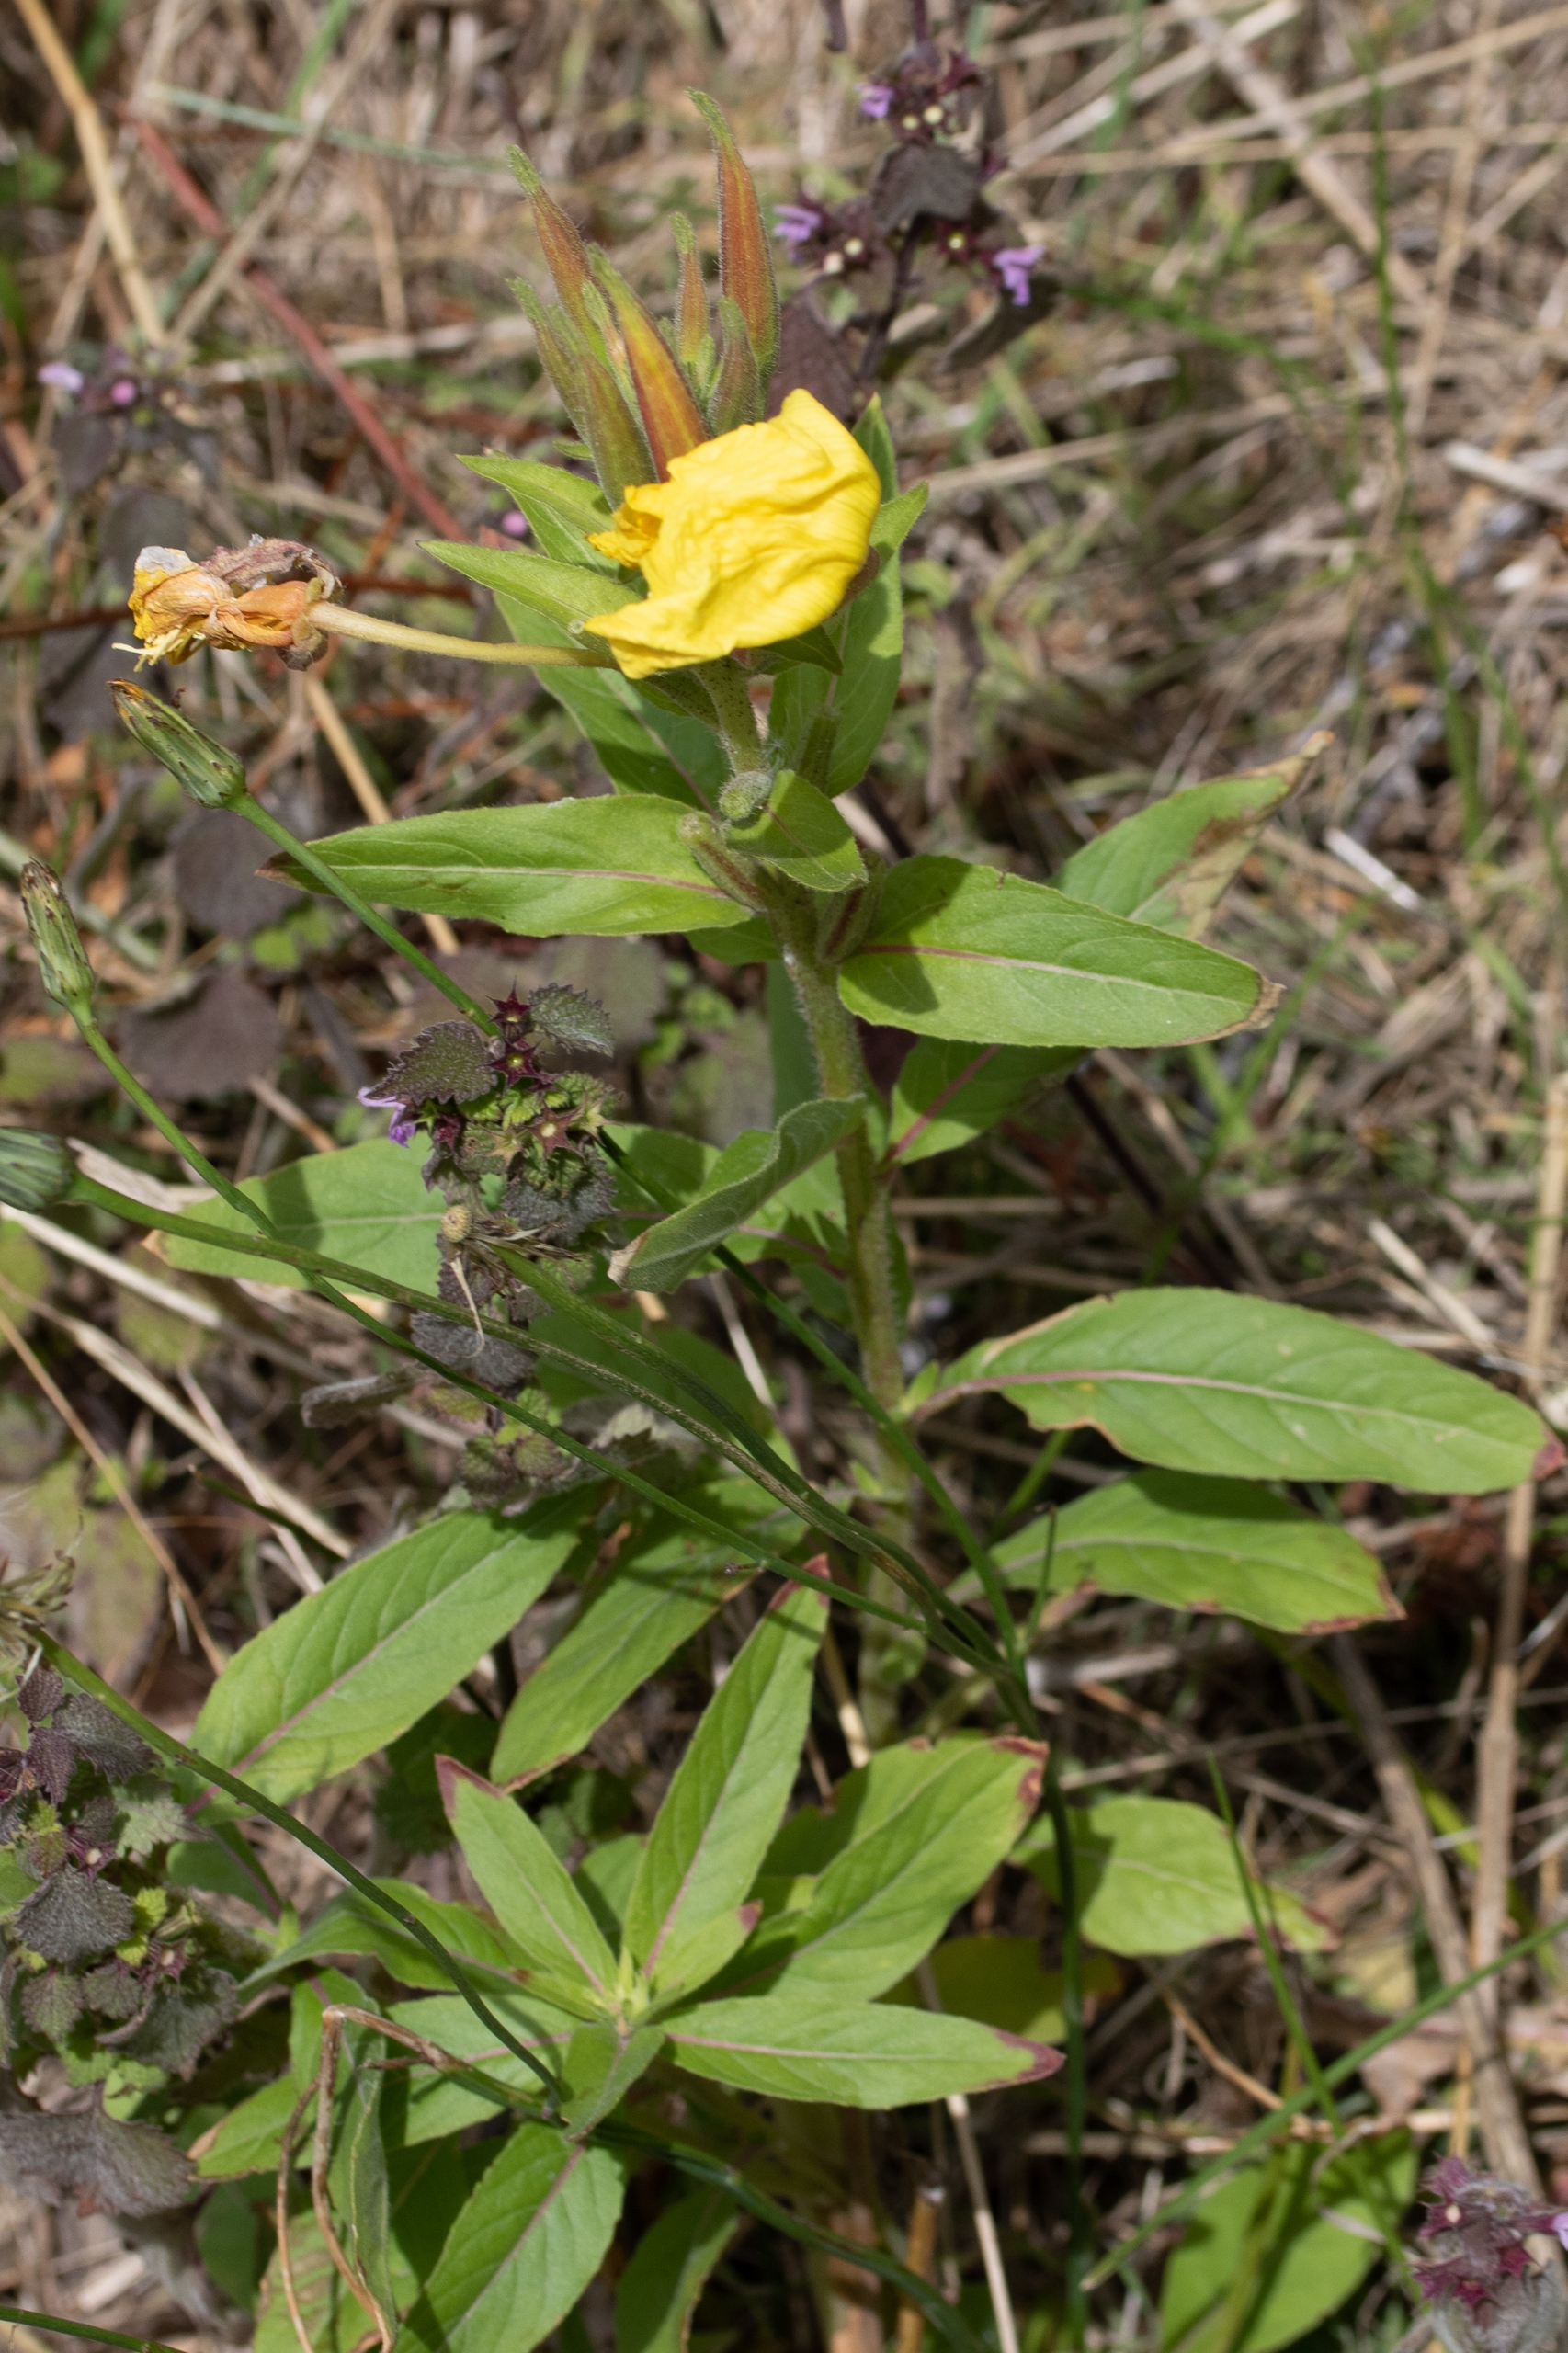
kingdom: Plantae
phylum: Tracheophyta
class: Magnoliopsida
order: Myrtales
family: Onagraceae
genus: Oenothera
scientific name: Oenothera glazioviana
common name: Kæmpe-natlys
